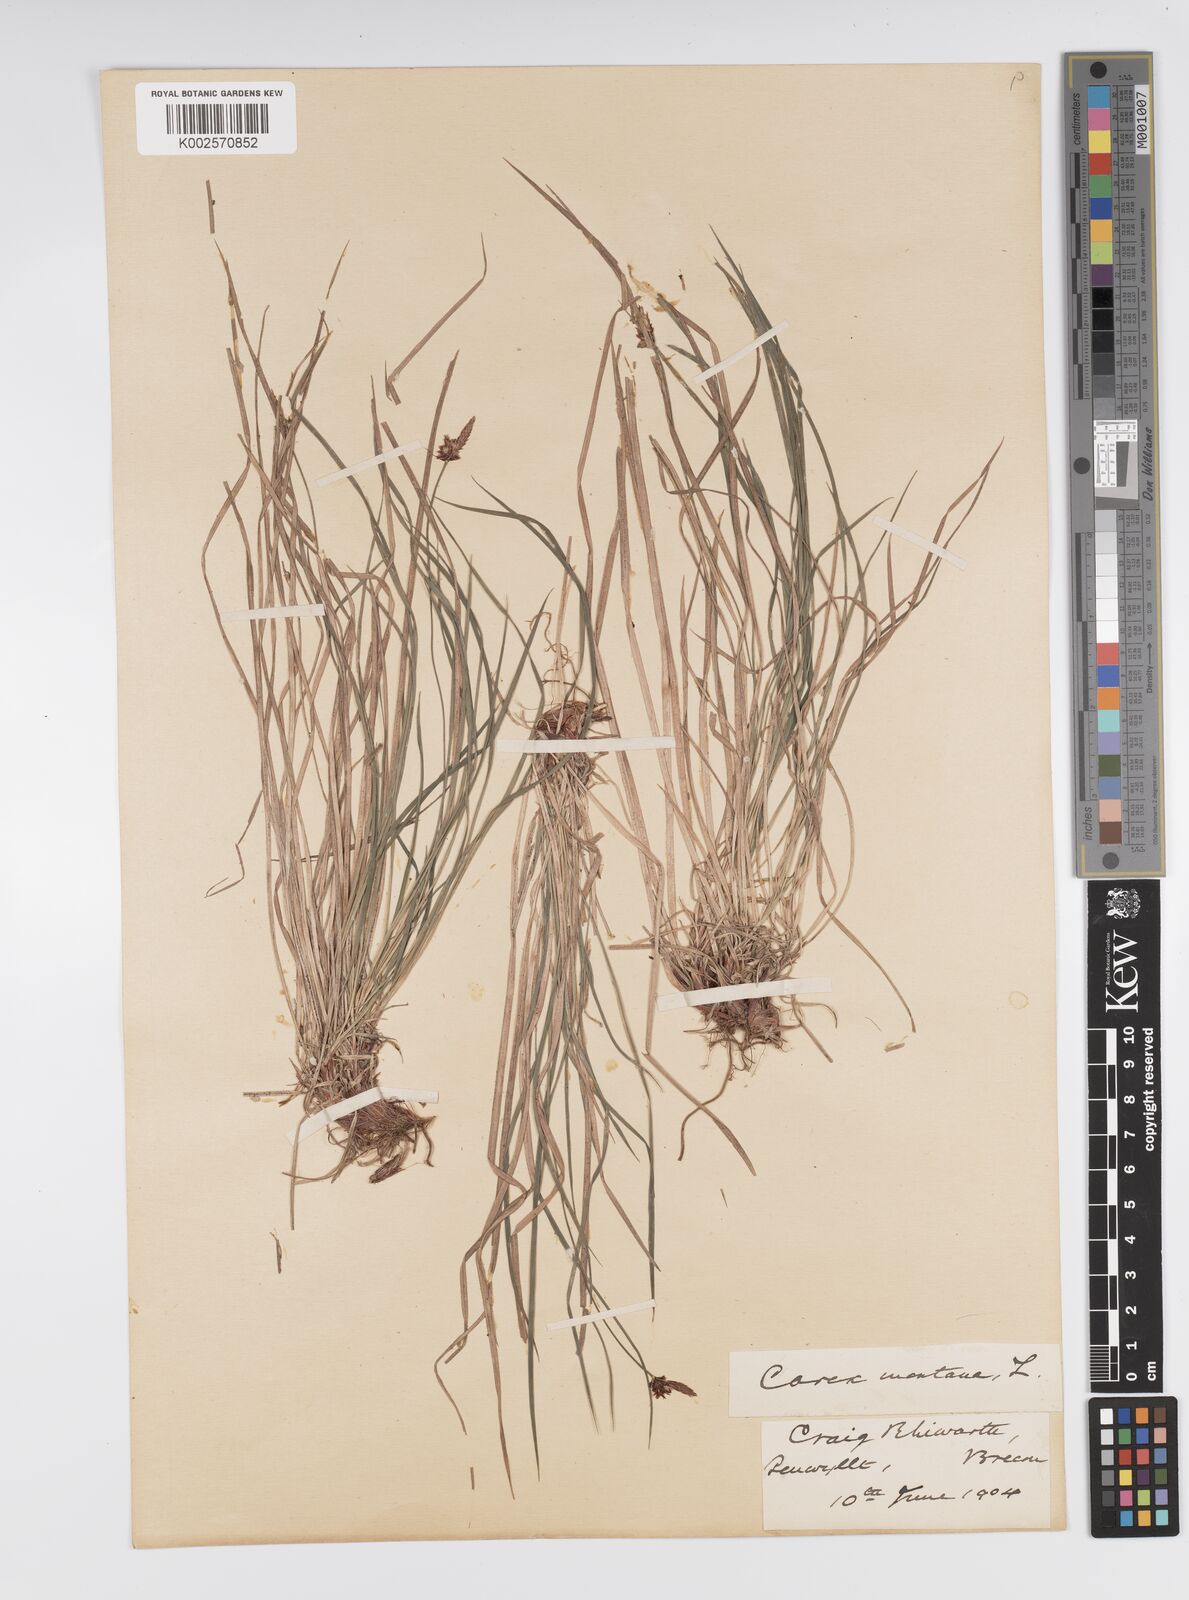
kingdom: Plantae
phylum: Tracheophyta
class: Liliopsida
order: Poales
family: Cyperaceae
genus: Carex
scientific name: Carex montana
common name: Soft-leaved sedge
